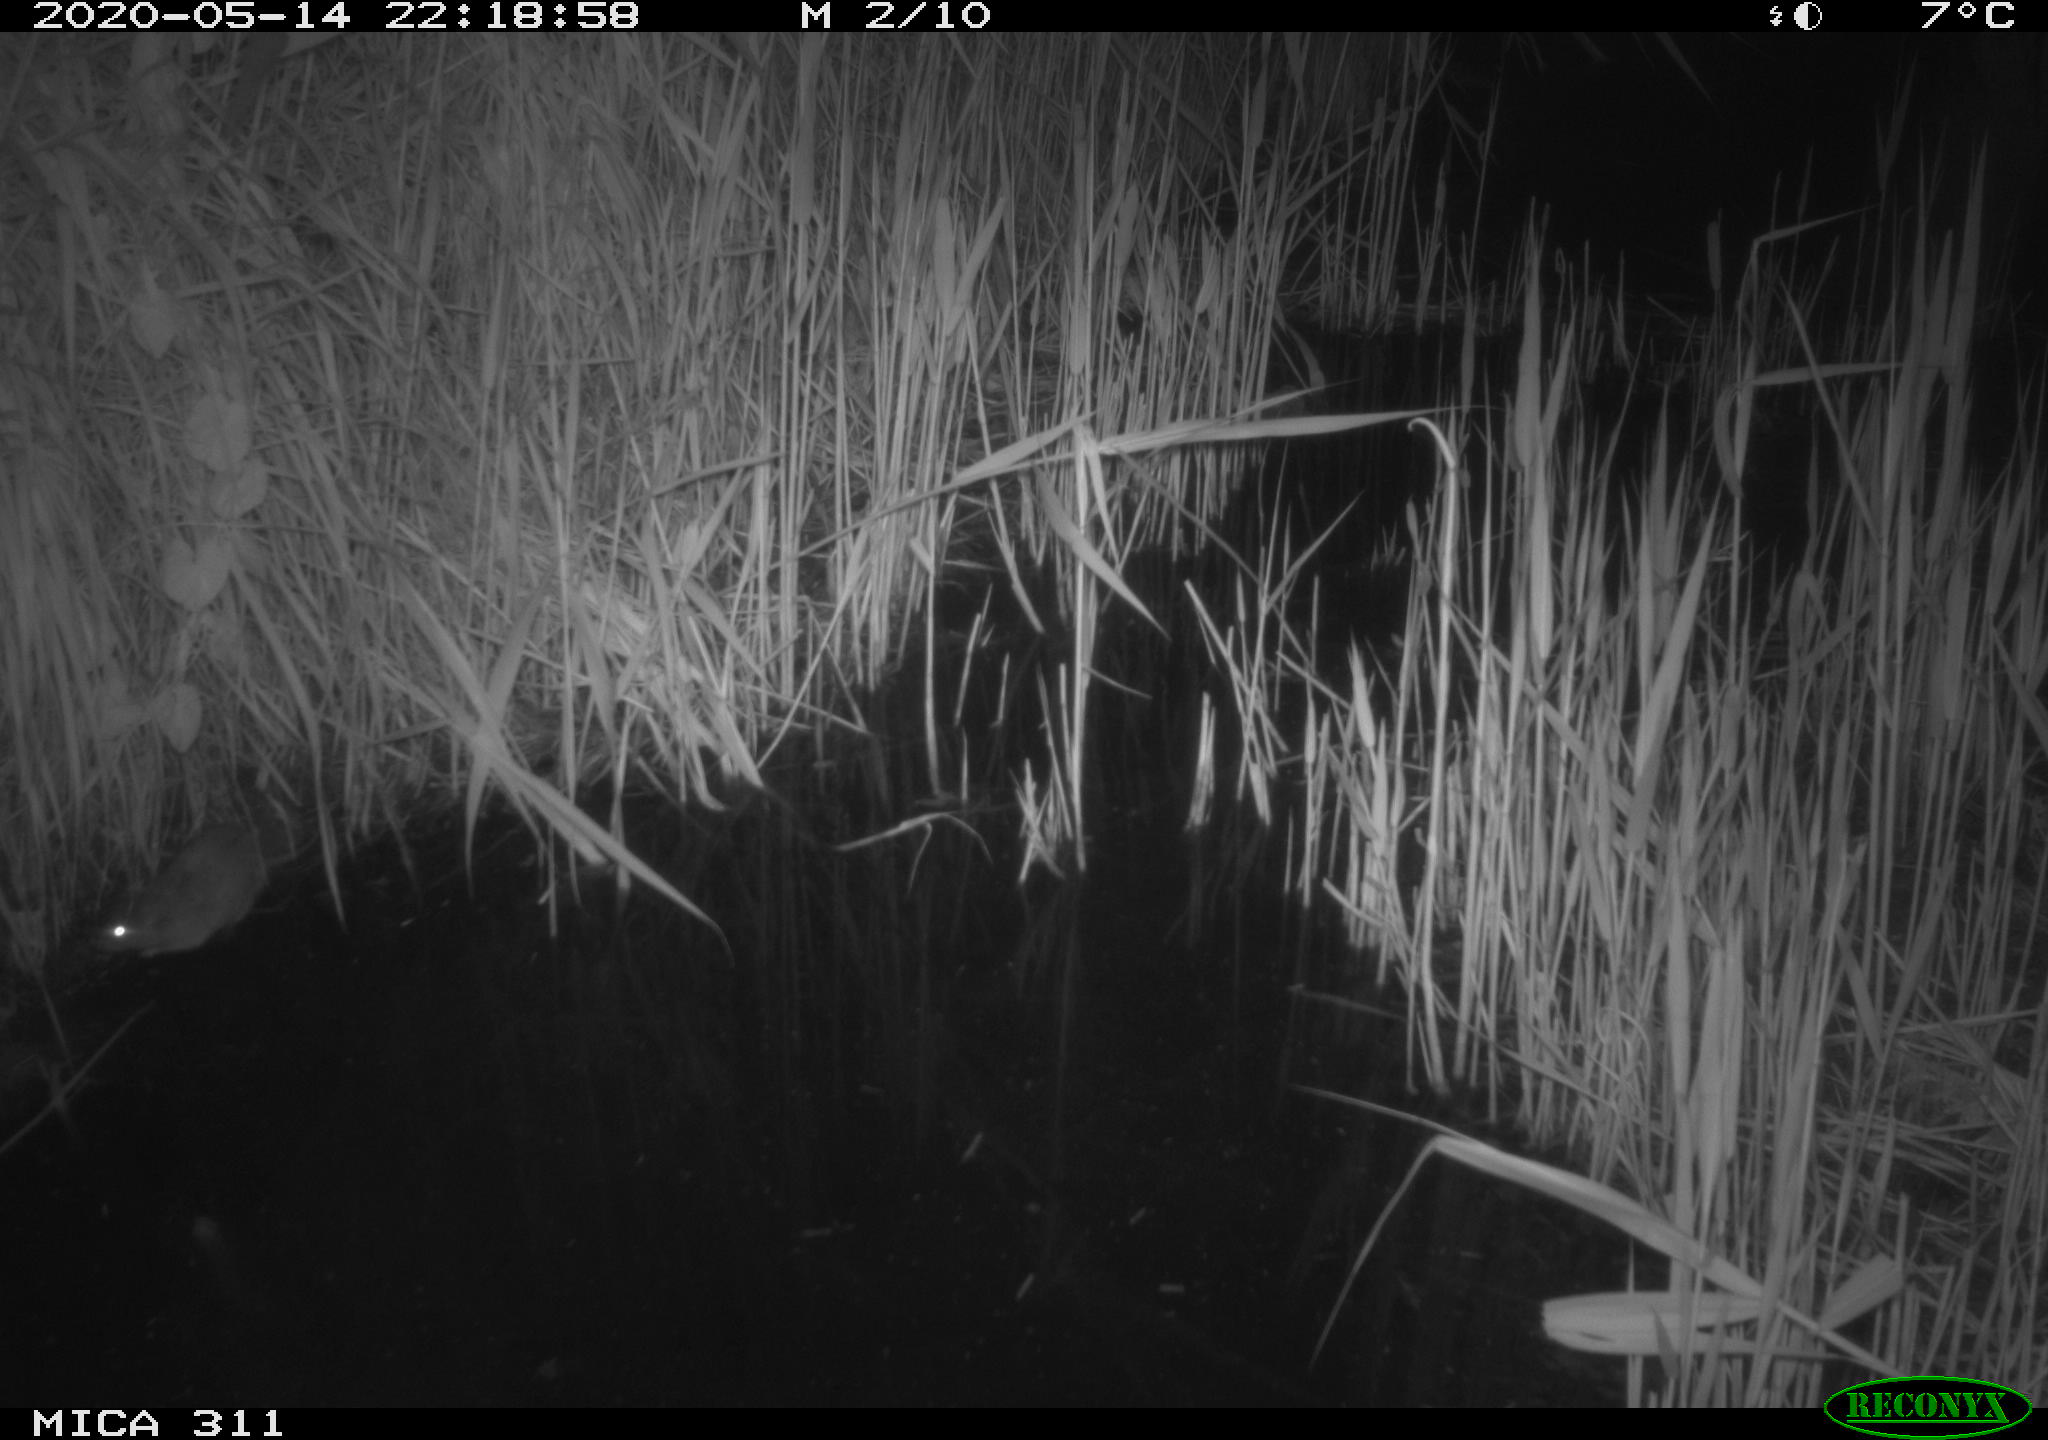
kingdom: Animalia
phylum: Chordata
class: Mammalia
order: Rodentia
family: Muridae
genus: Rattus
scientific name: Rattus norvegicus
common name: Brown rat
